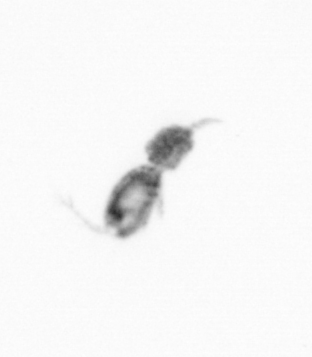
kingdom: Animalia
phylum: Arthropoda
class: Copepoda
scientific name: Copepoda
